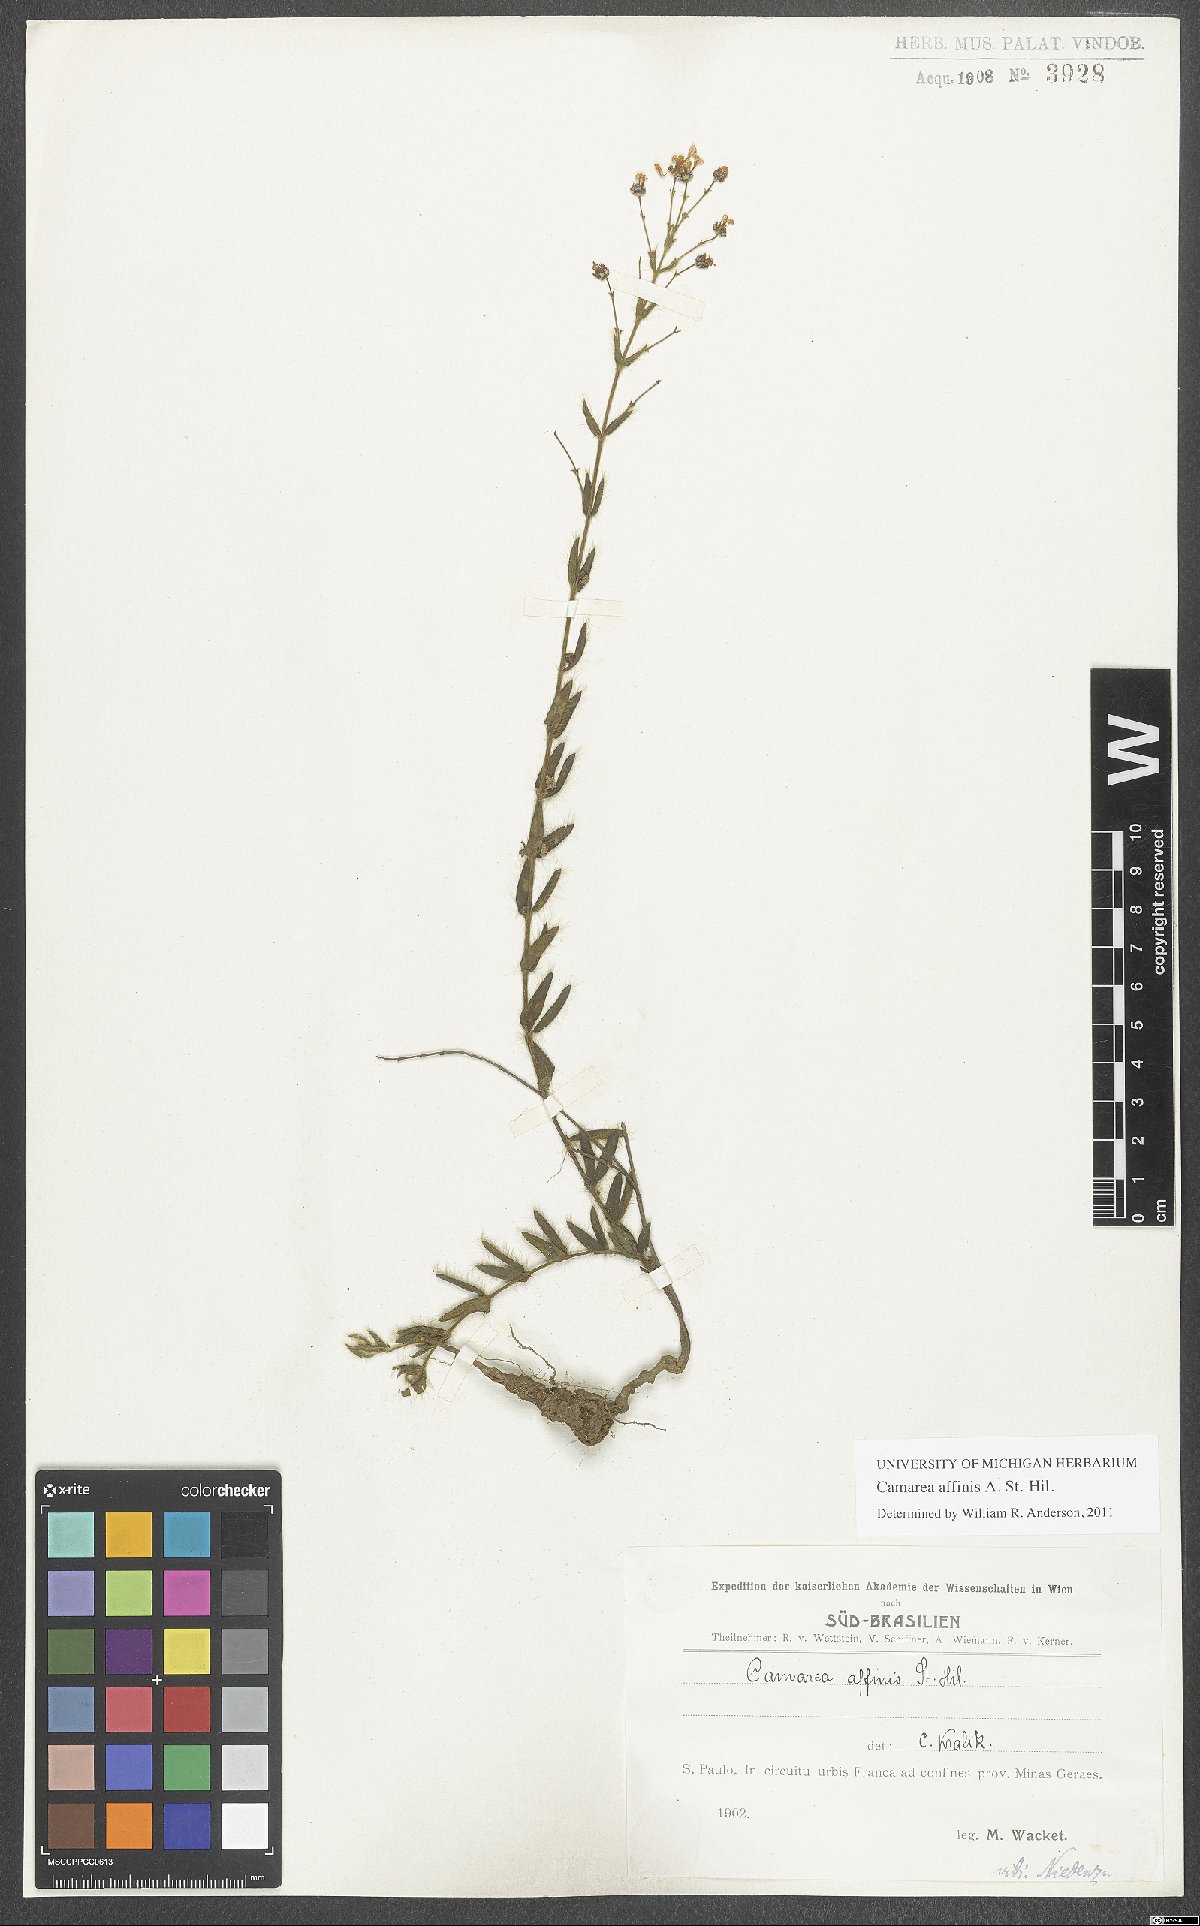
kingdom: Plantae
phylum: Tracheophyta
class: Magnoliopsida
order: Malpighiales
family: Malpighiaceae
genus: Camarea
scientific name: Camarea affinis
